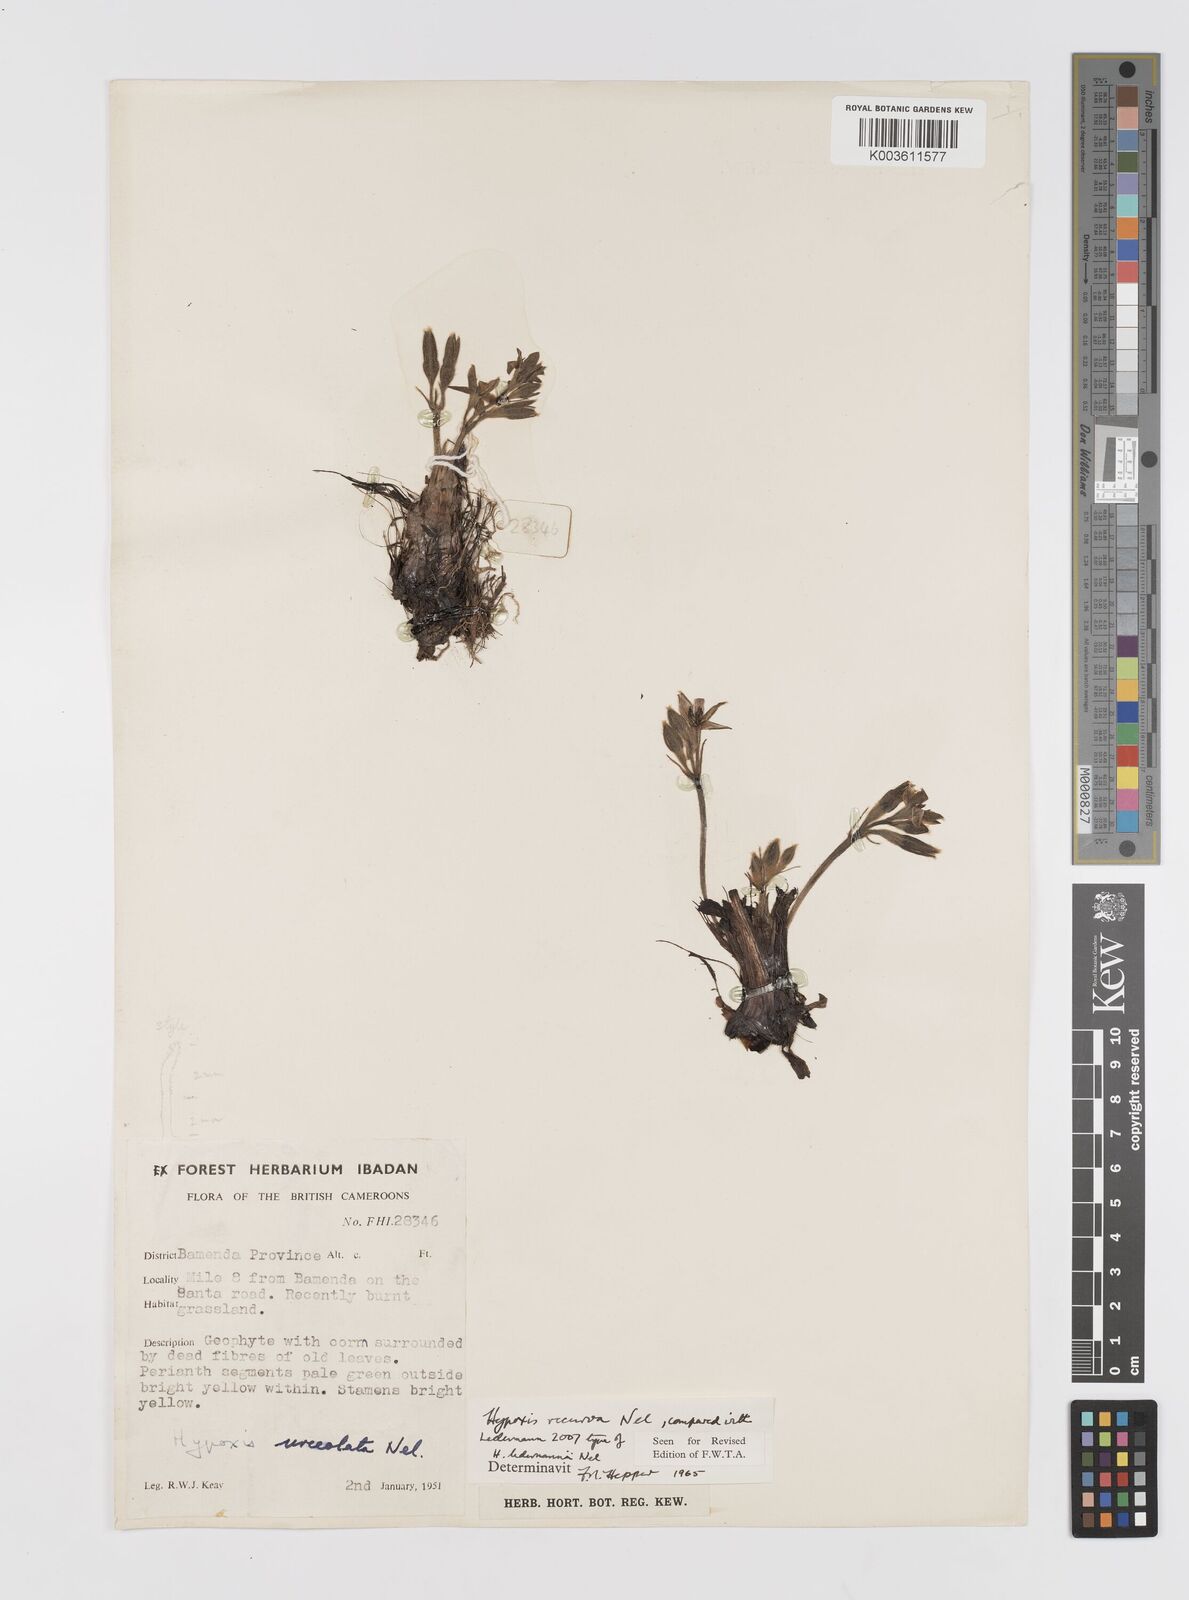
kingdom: Plantae
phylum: Tracheophyta
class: Liliopsida
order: Asparagales
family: Hypoxidaceae
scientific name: Hypoxidaceae
